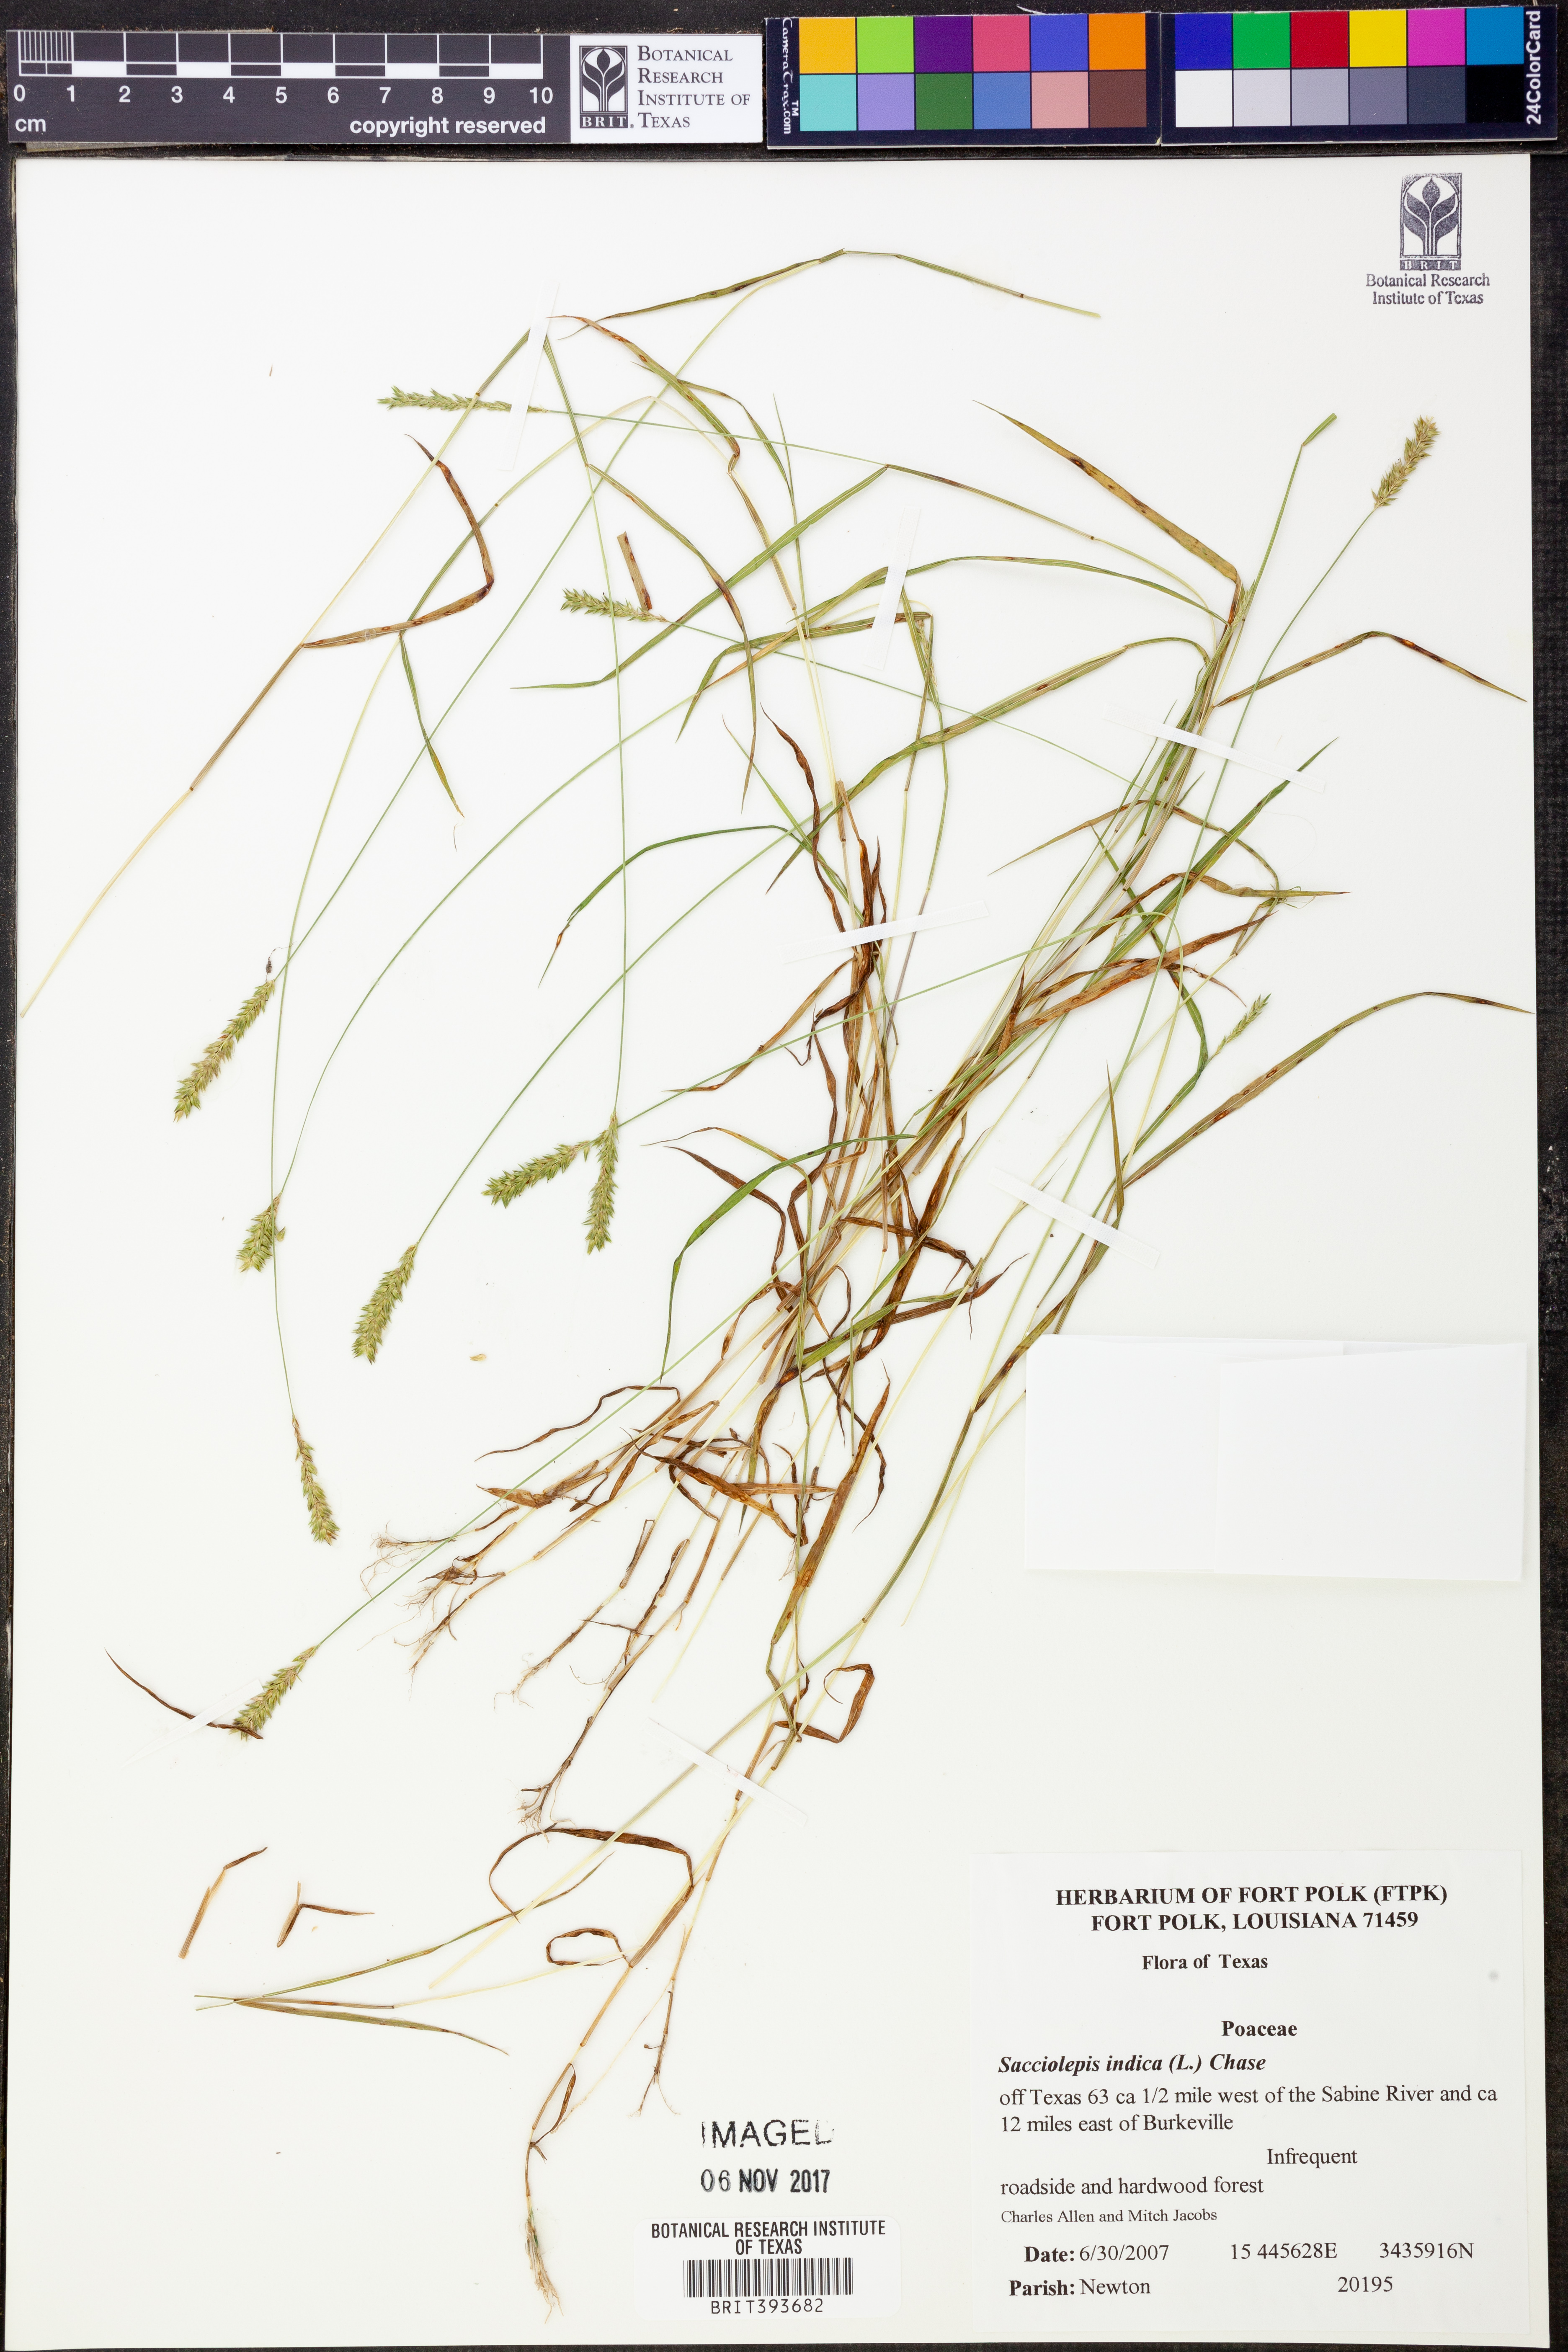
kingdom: Plantae
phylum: Tracheophyta
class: Liliopsida
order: Poales
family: Poaceae
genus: Sacciolepis
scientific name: Sacciolepis indica
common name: Glenwoodgrass
